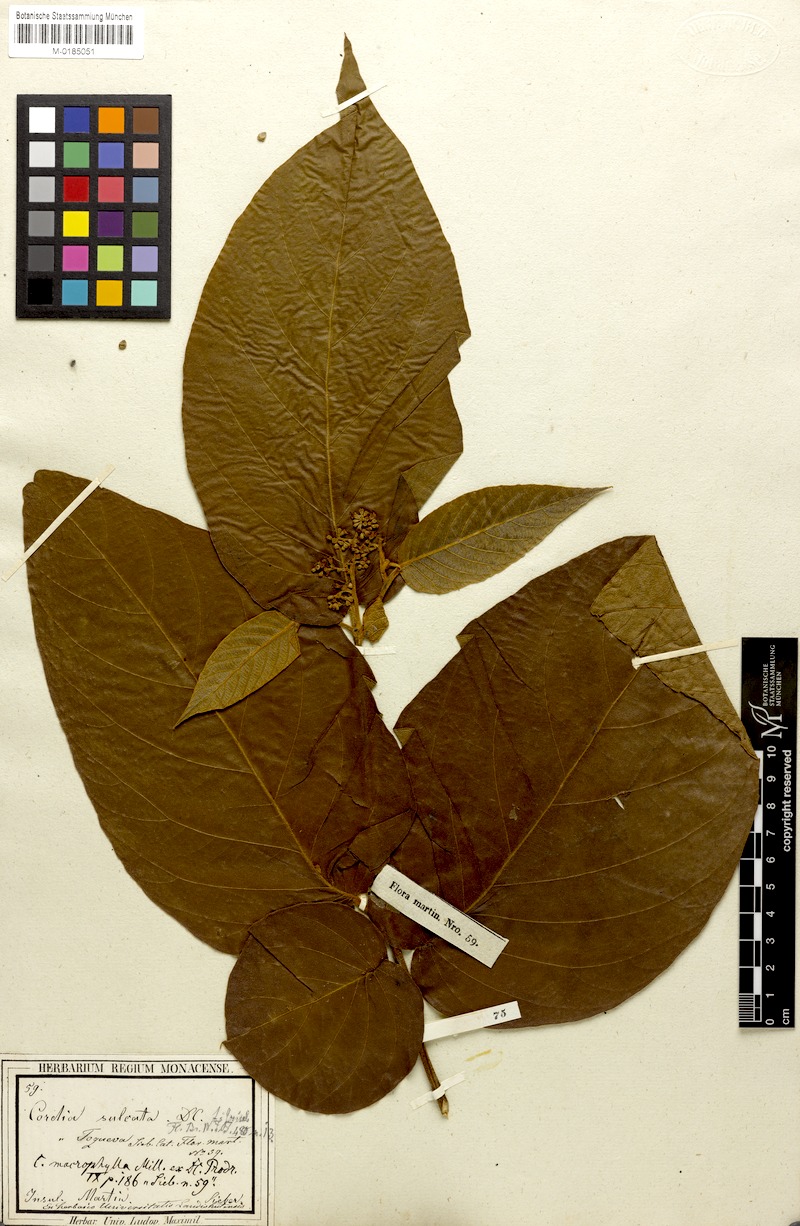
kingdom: Plantae
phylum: Tracheophyta
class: Magnoliopsida
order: Boraginales
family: Cordiaceae
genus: Cordia
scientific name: Cordia sulcata
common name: White manjack
